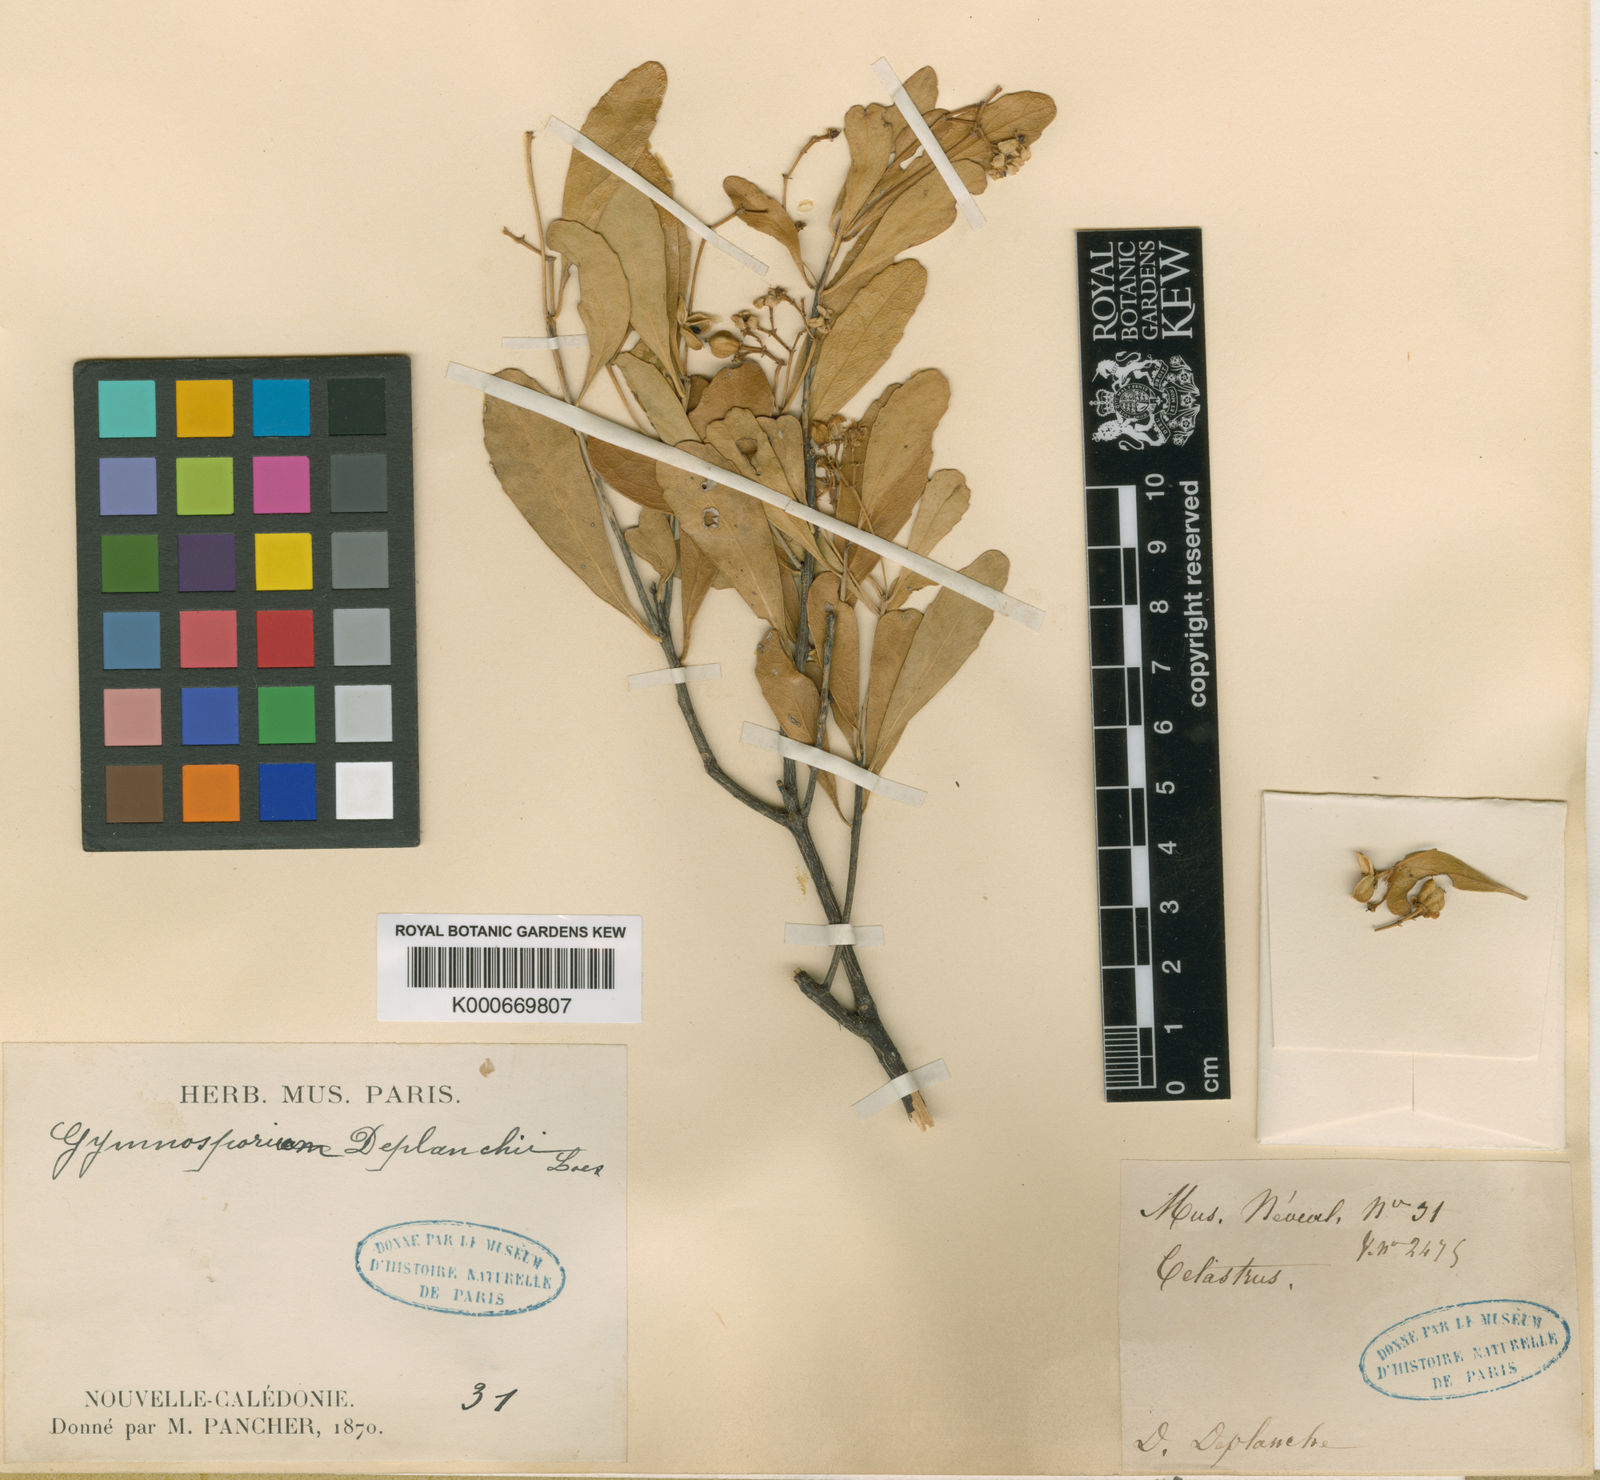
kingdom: Plantae
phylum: Tracheophyta
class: Magnoliopsida
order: Celastrales
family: Celastraceae
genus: Denhamia
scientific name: Denhamia fournieri
